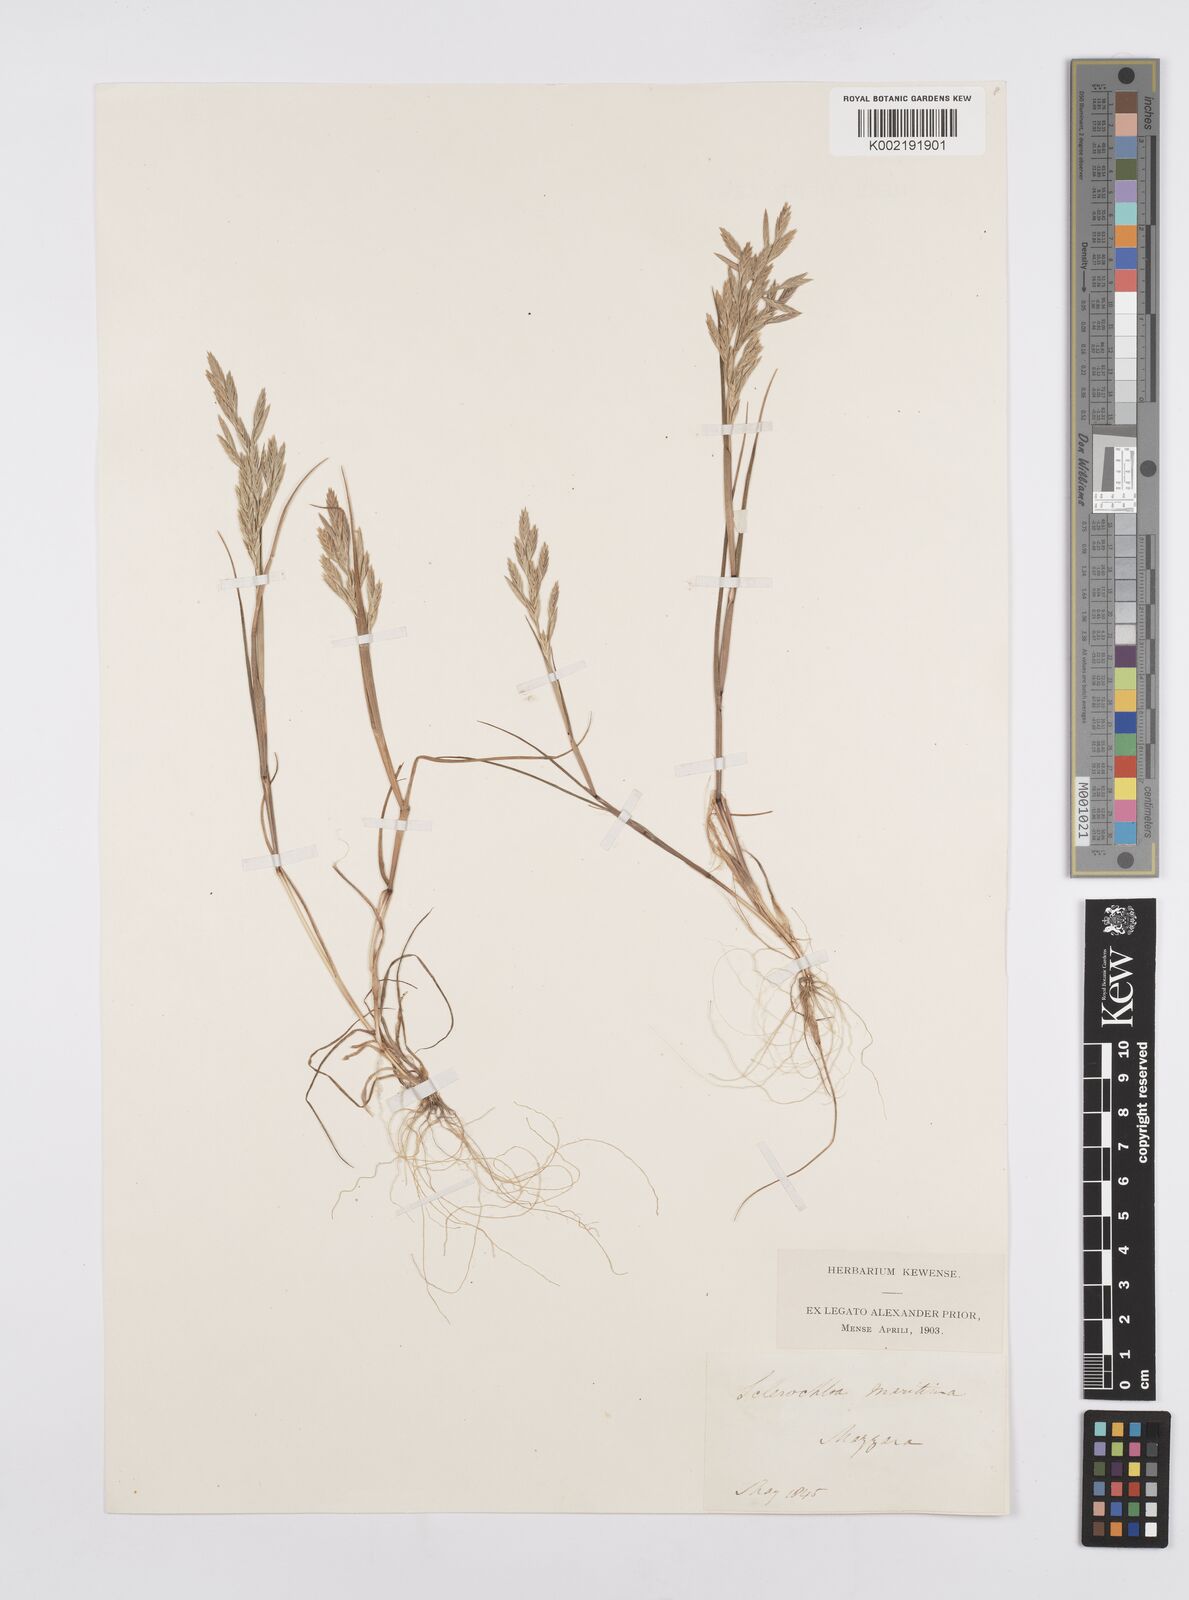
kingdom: Plantae
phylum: Tracheophyta
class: Liliopsida
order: Poales
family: Poaceae
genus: Cutandia
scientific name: Cutandia maritima
